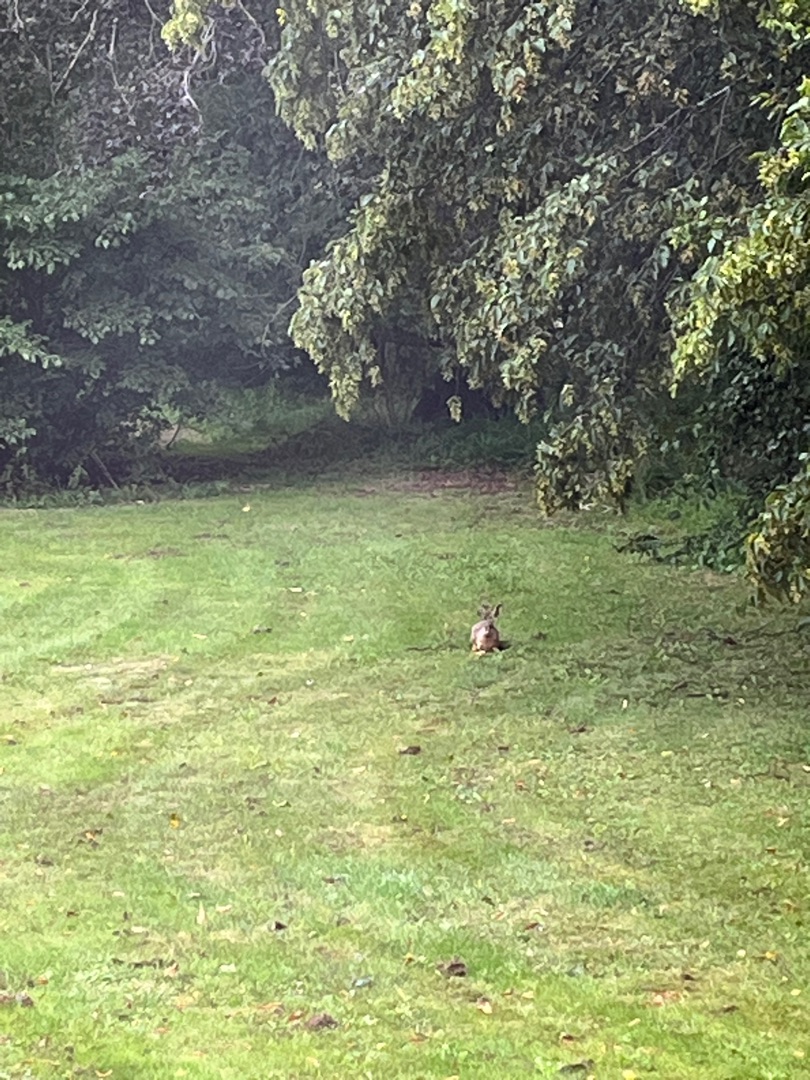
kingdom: Animalia
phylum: Chordata
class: Mammalia
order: Lagomorpha
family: Leporidae
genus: Lepus
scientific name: Lepus europaeus
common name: Hare
